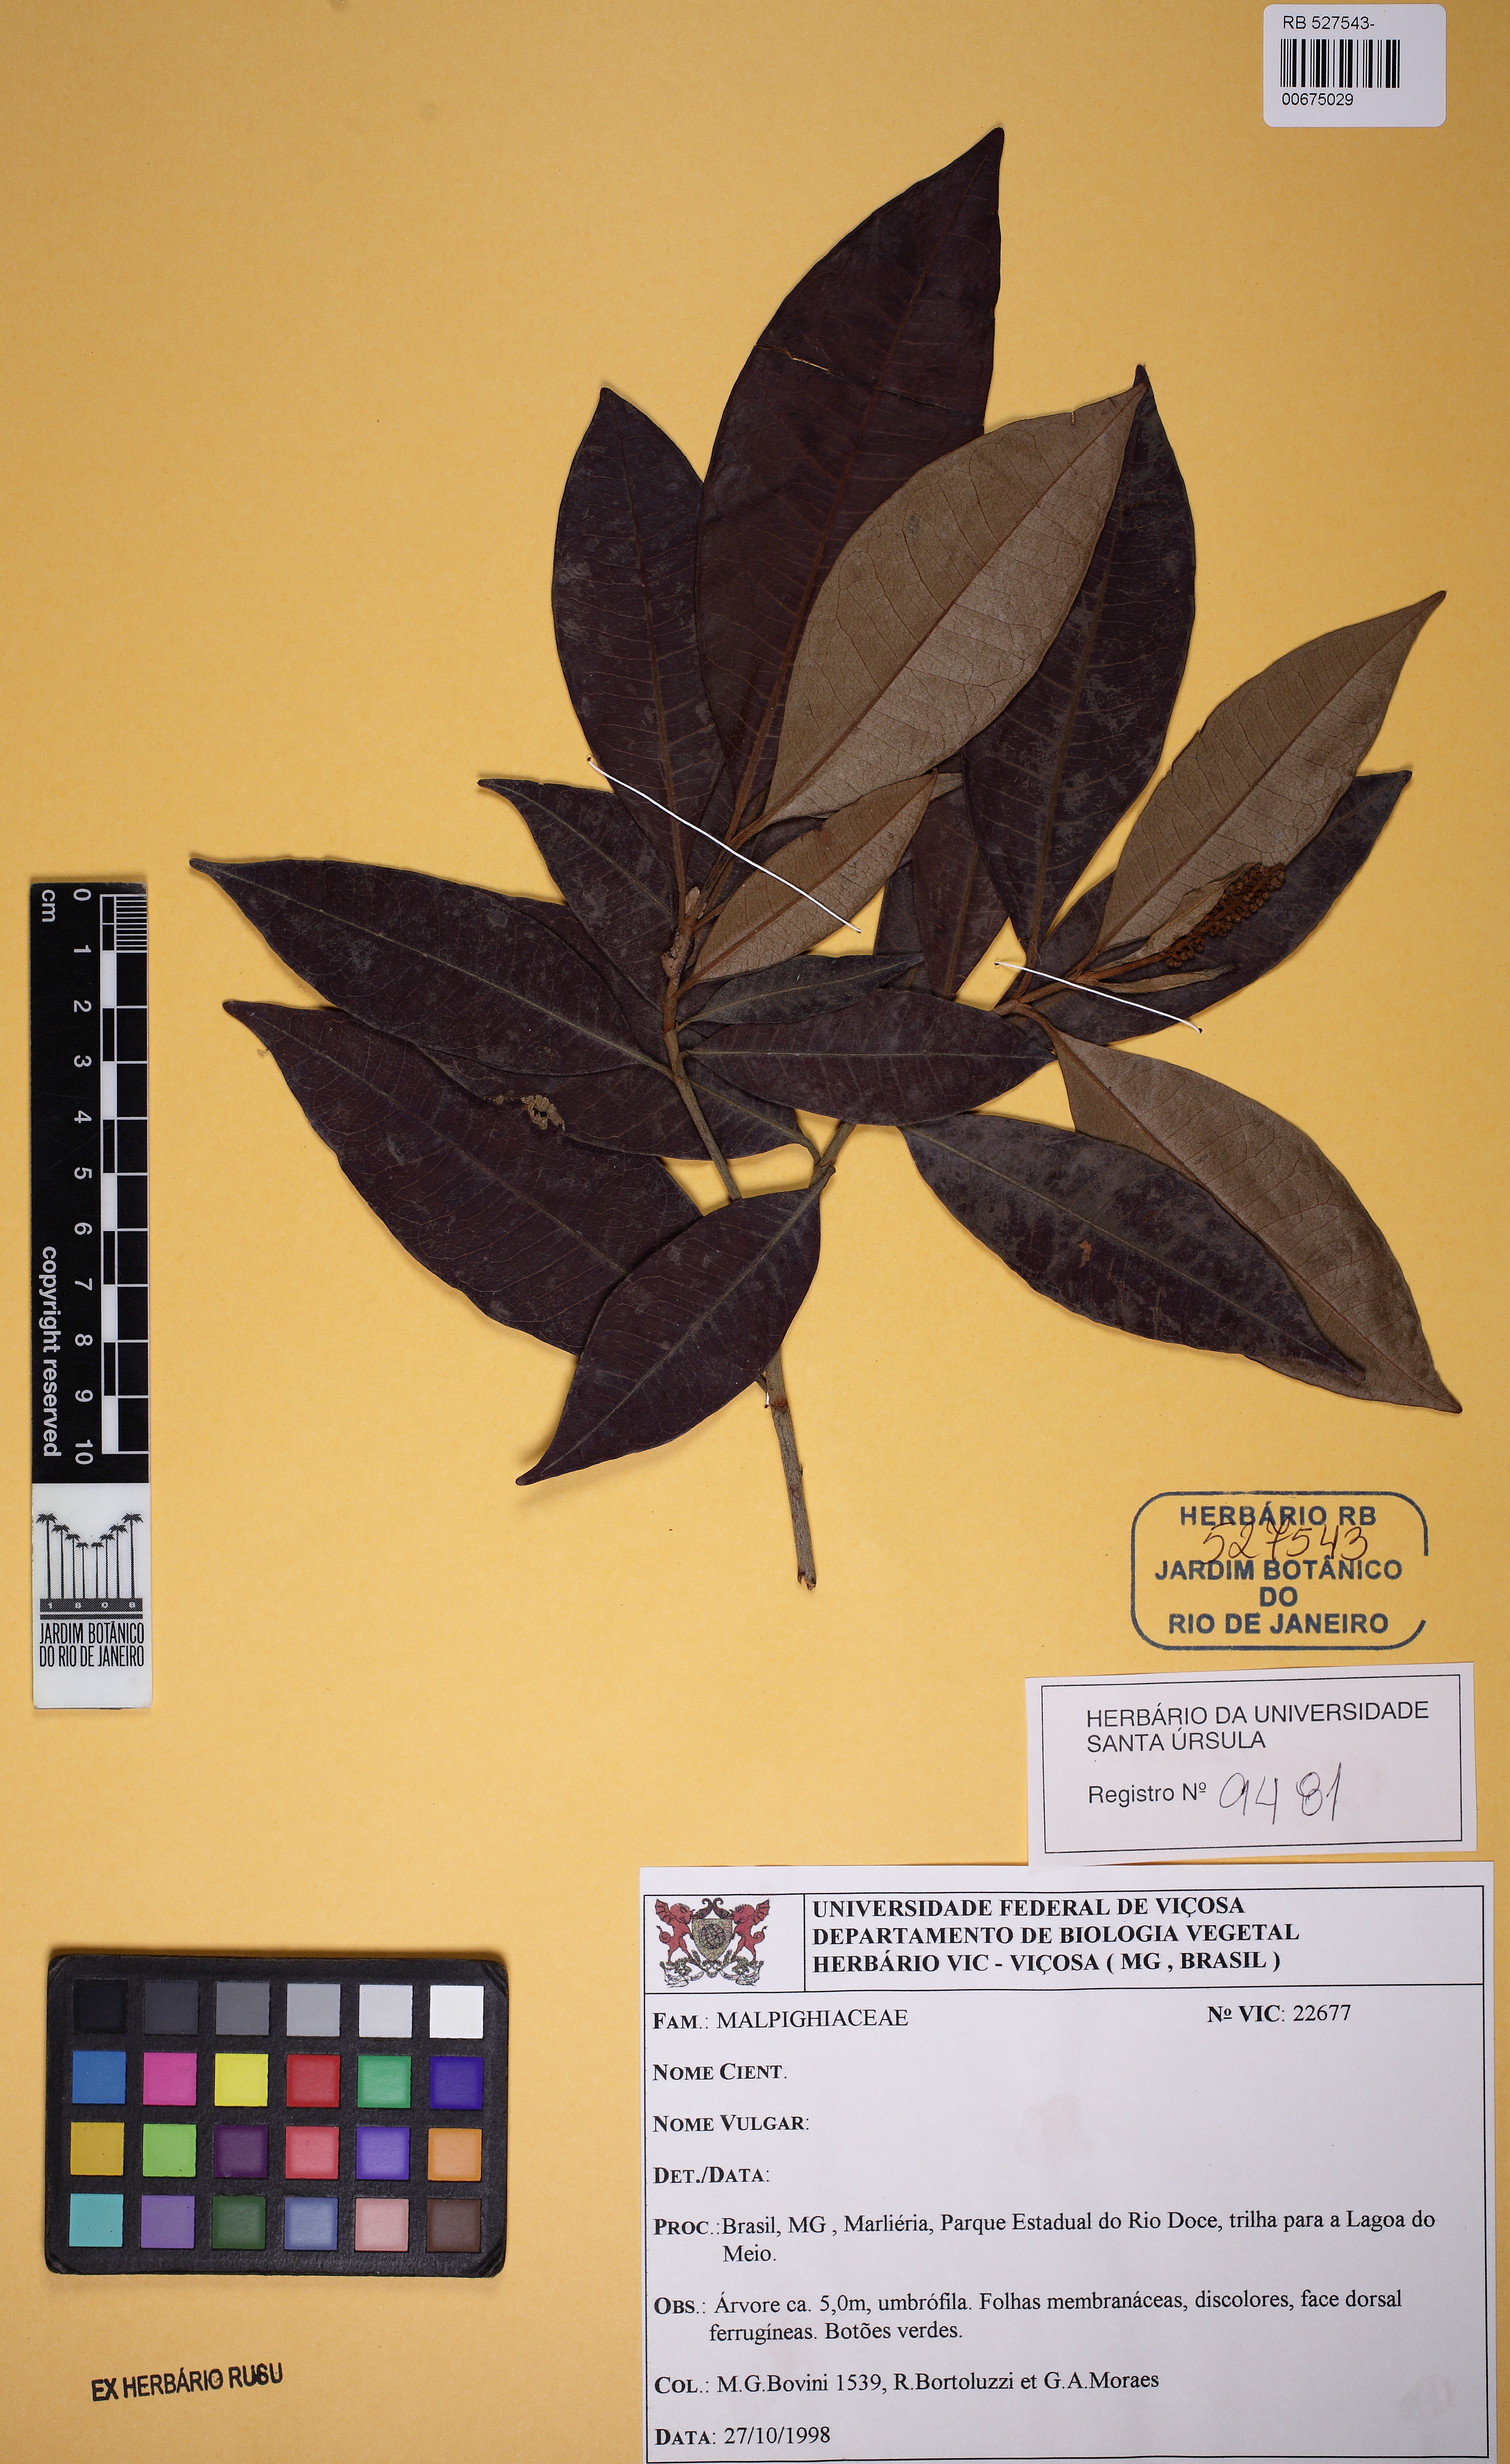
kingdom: Plantae
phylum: Tracheophyta
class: Magnoliopsida
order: Malpighiales
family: Malpighiaceae
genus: Byrsonima
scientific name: Byrsonima sericea
